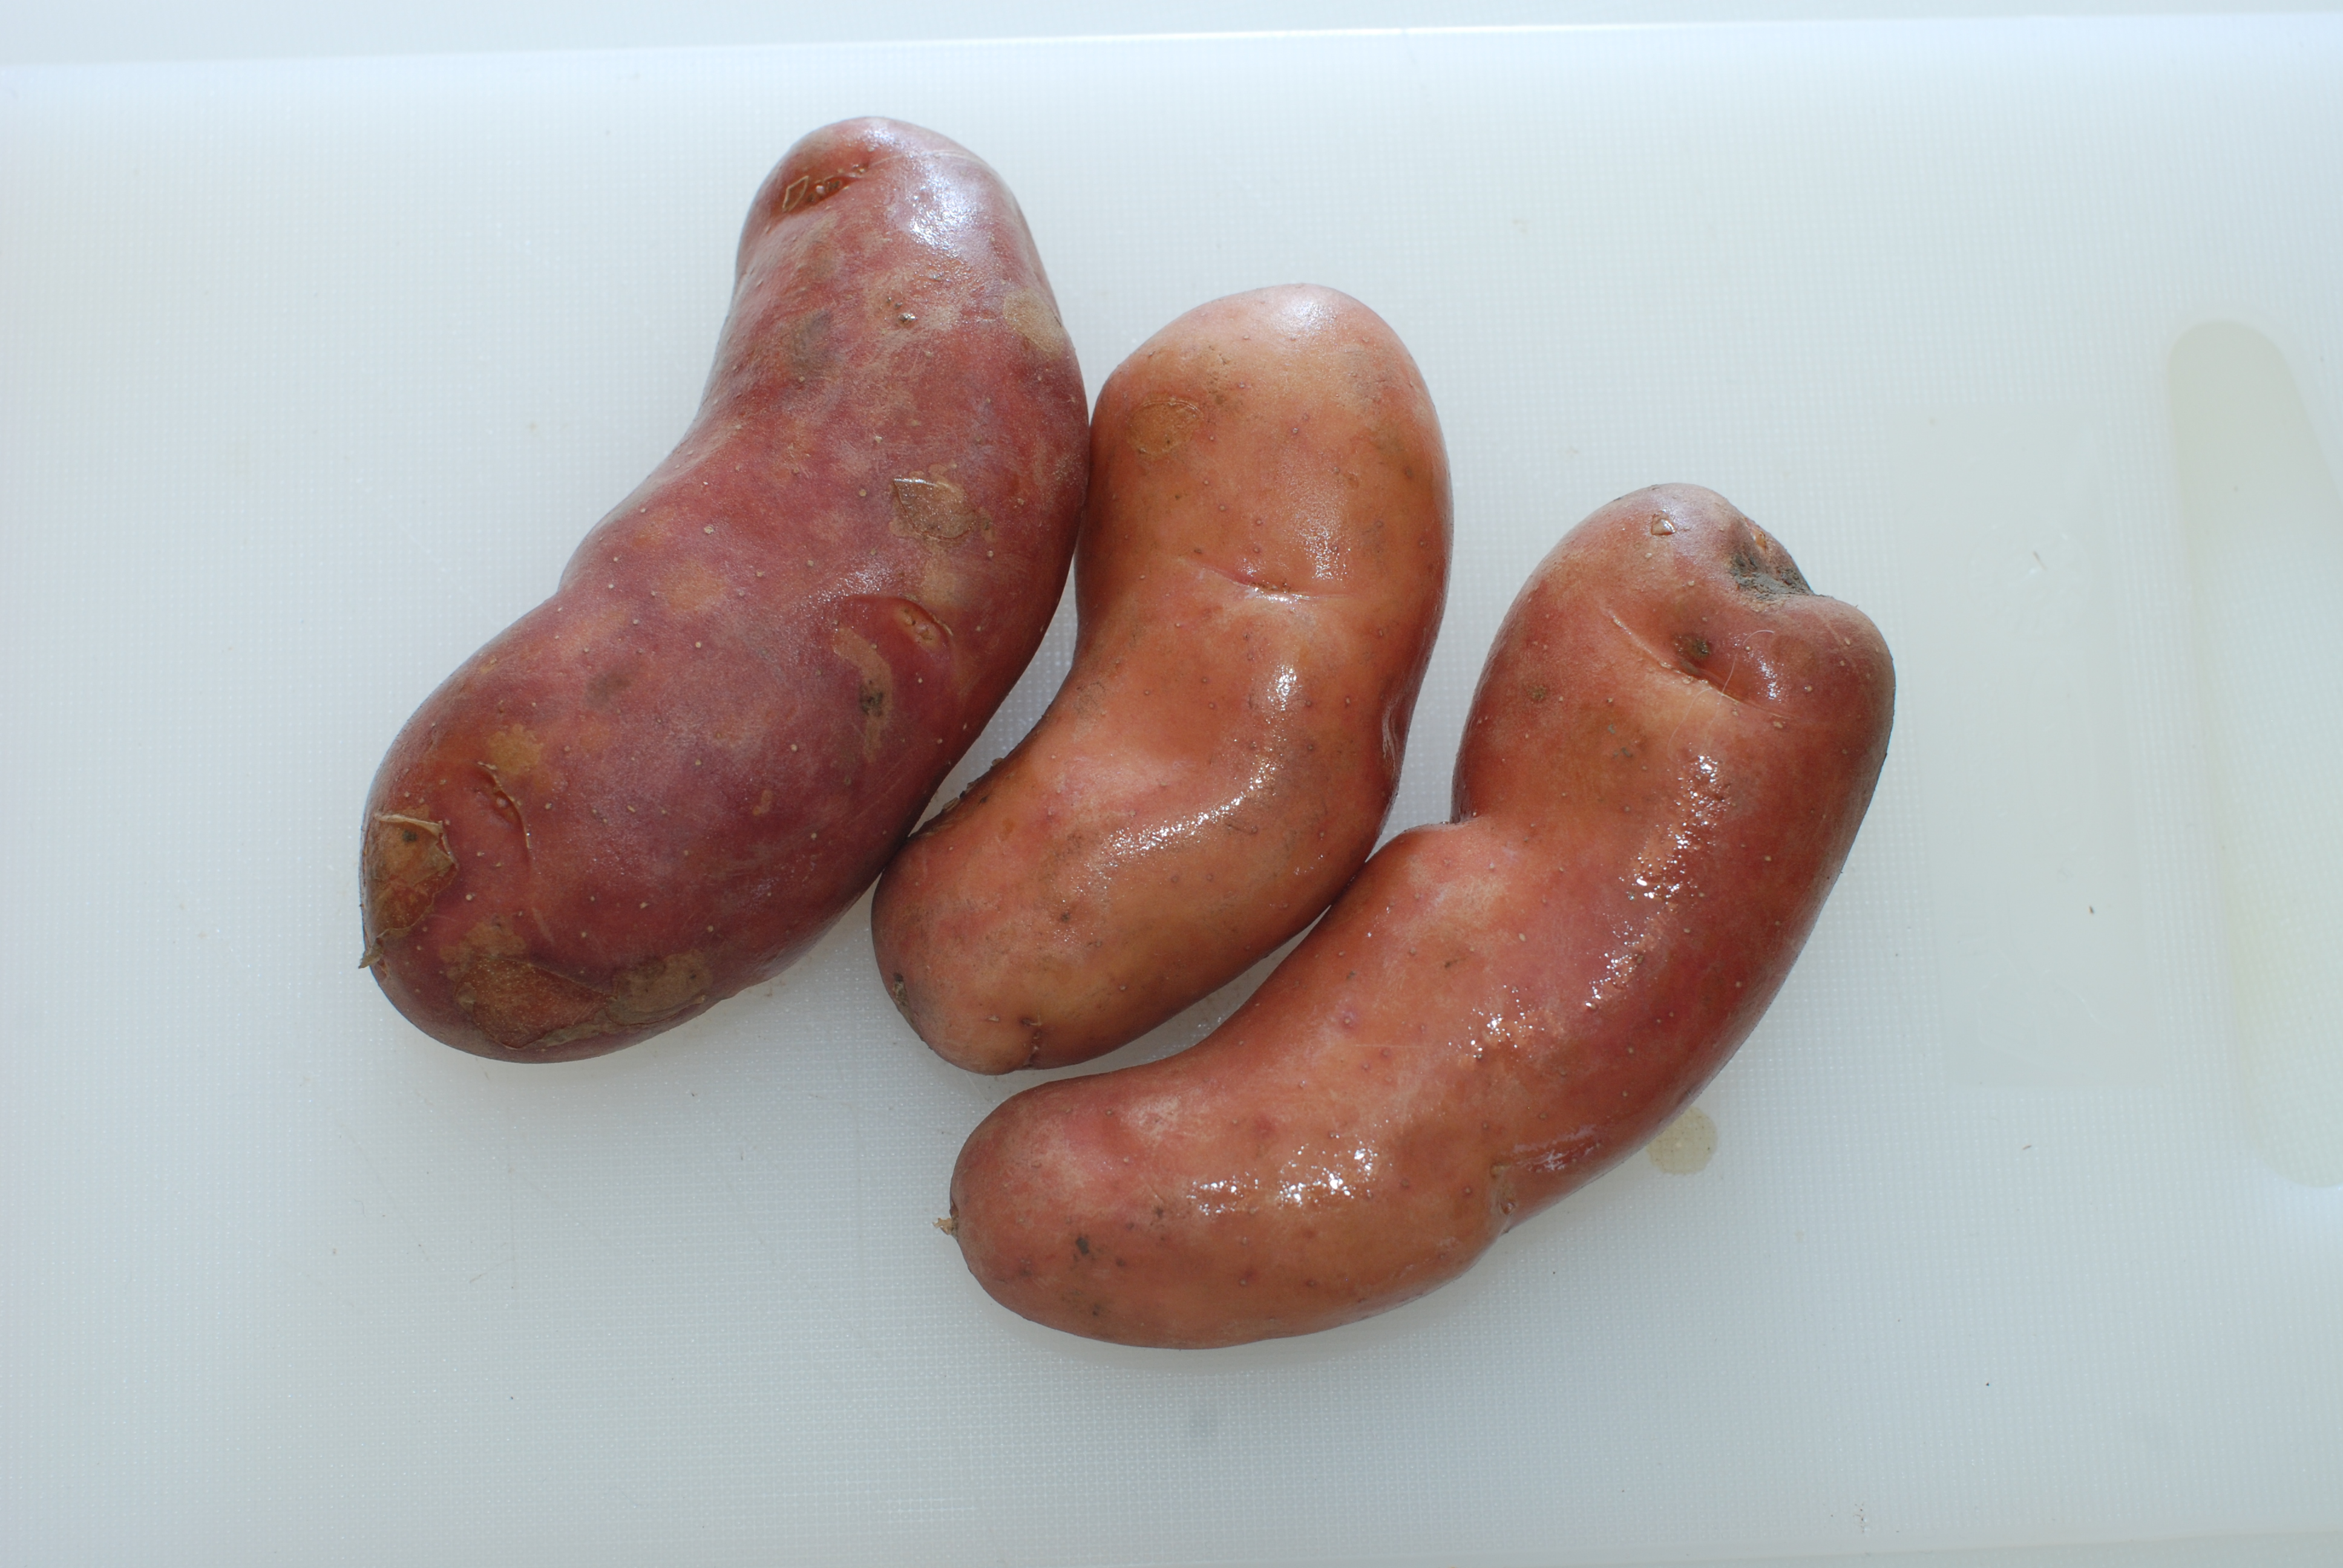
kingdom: Plantae
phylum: Tracheophyta
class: Magnoliopsida
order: Solanales
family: Solanaceae
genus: Solanum
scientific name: Solanum tuberosum
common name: Potato
